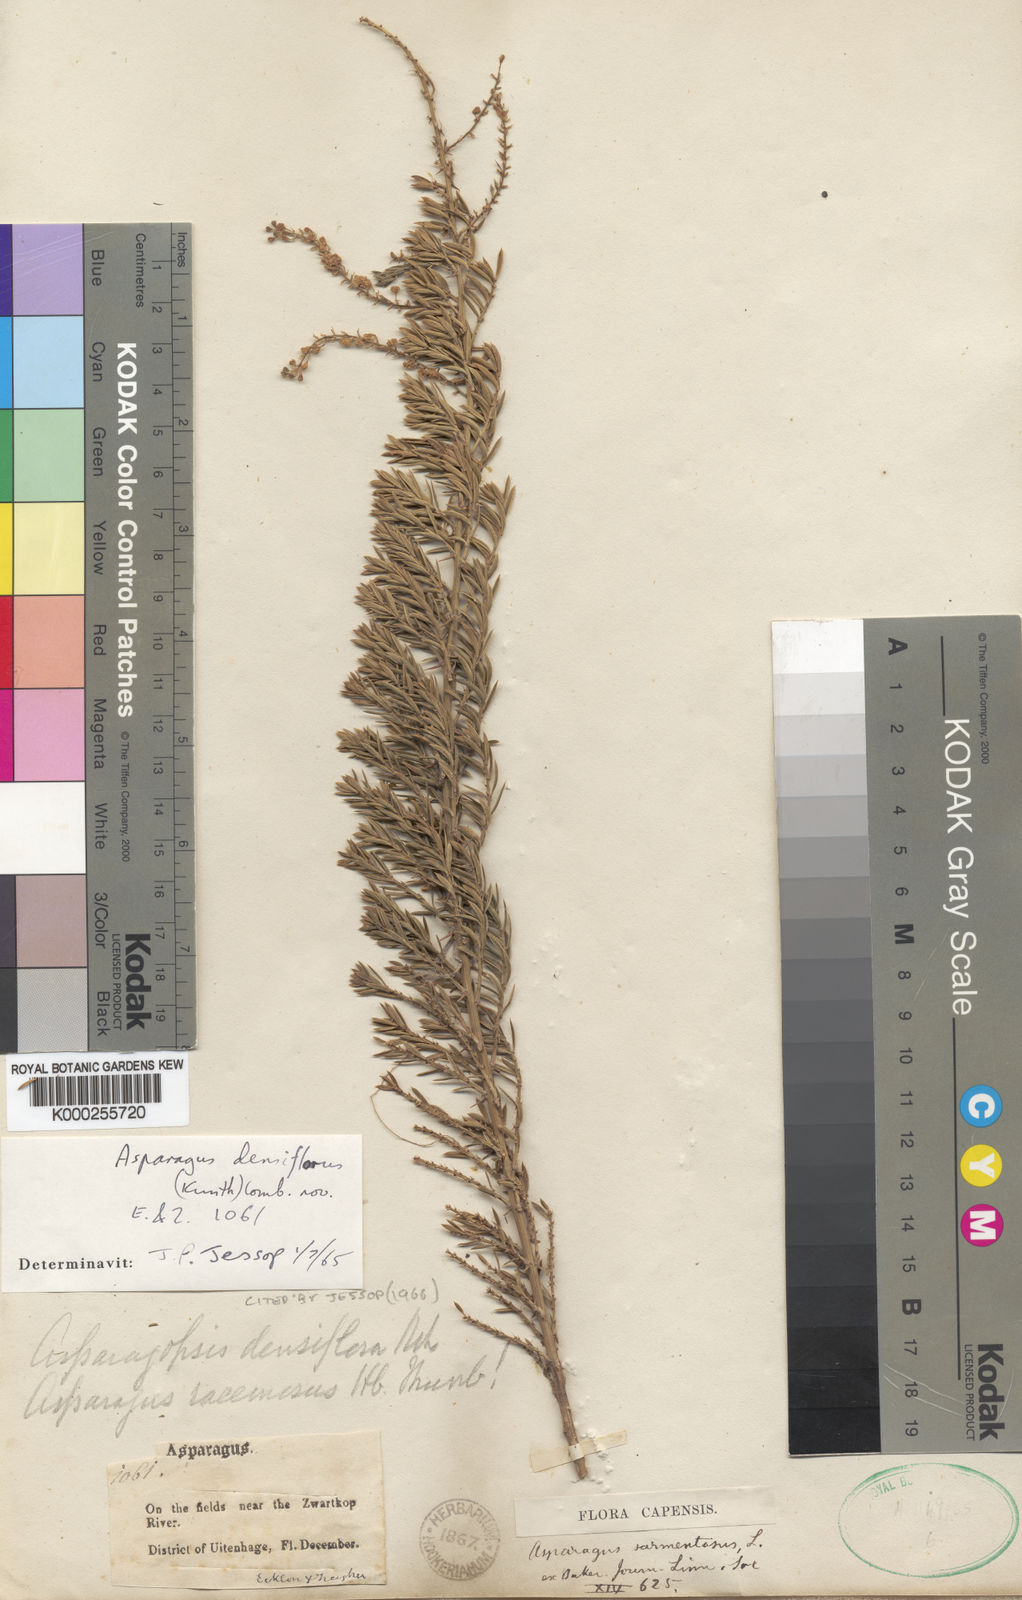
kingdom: Plantae
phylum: Tracheophyta
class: Liliopsida
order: Asparagales
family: Asparagaceae
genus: Asparagus
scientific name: Asparagus densiflorus
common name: Asparagus fern
